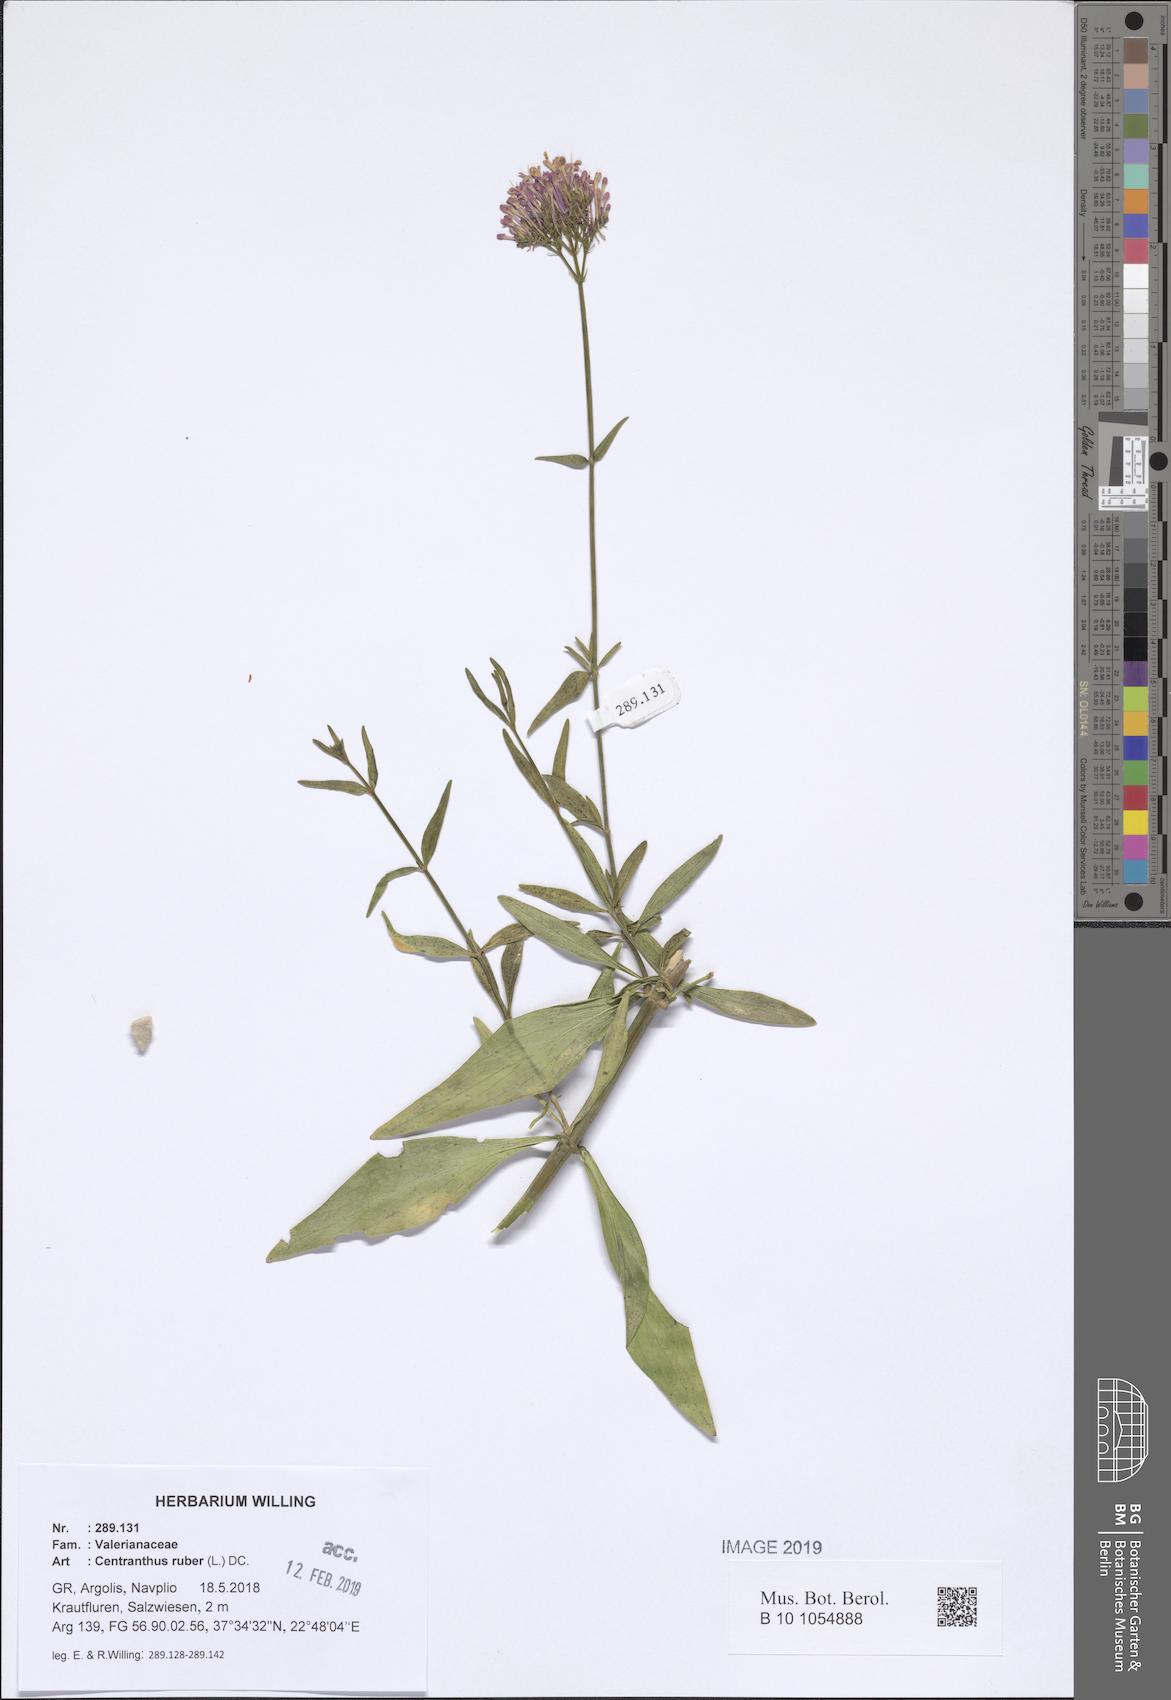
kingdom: Plantae
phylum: Tracheophyta
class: Magnoliopsida
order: Dipsacales
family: Caprifoliaceae
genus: Centranthus
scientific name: Centranthus ruber
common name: Red valerian
